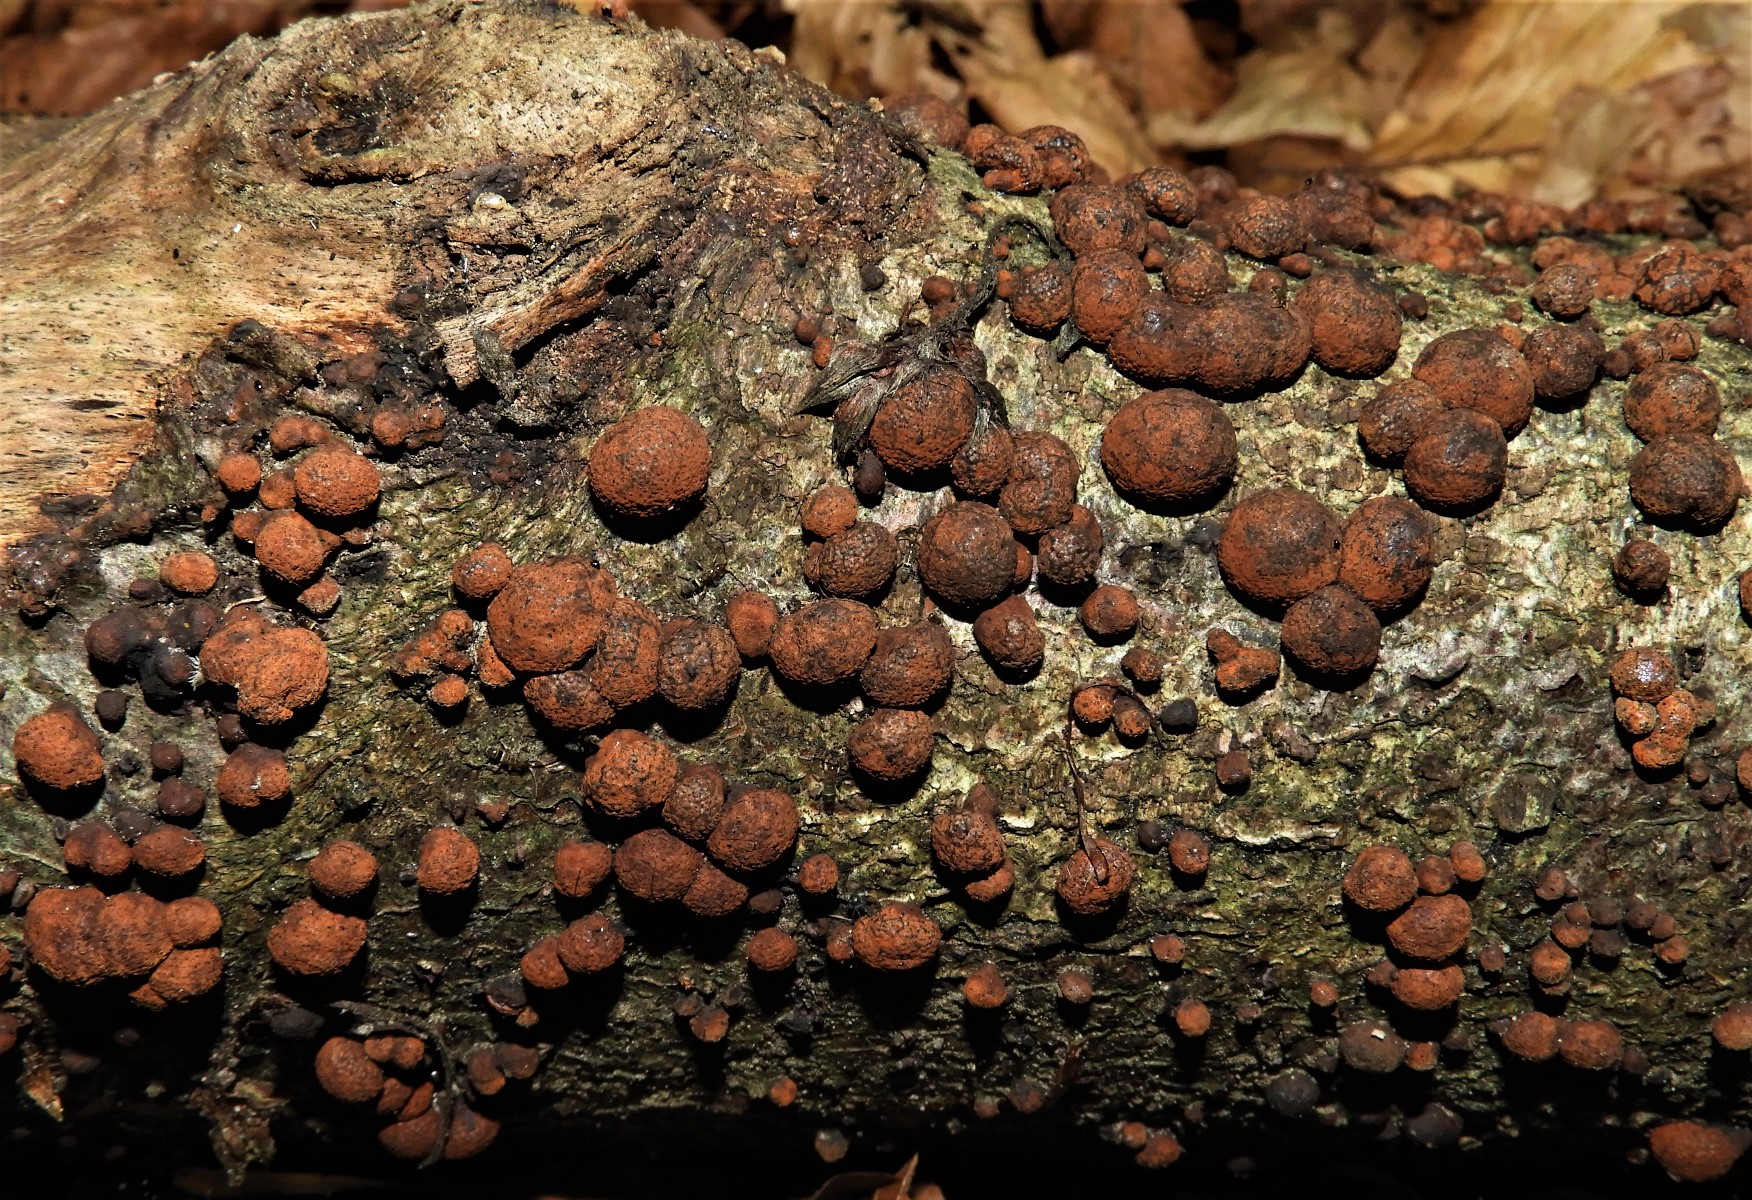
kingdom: Fungi
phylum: Ascomycota
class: Sordariomycetes
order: Xylariales
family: Hypoxylaceae
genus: Hypoxylon
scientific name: Hypoxylon fragiforme
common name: kuljordbær
